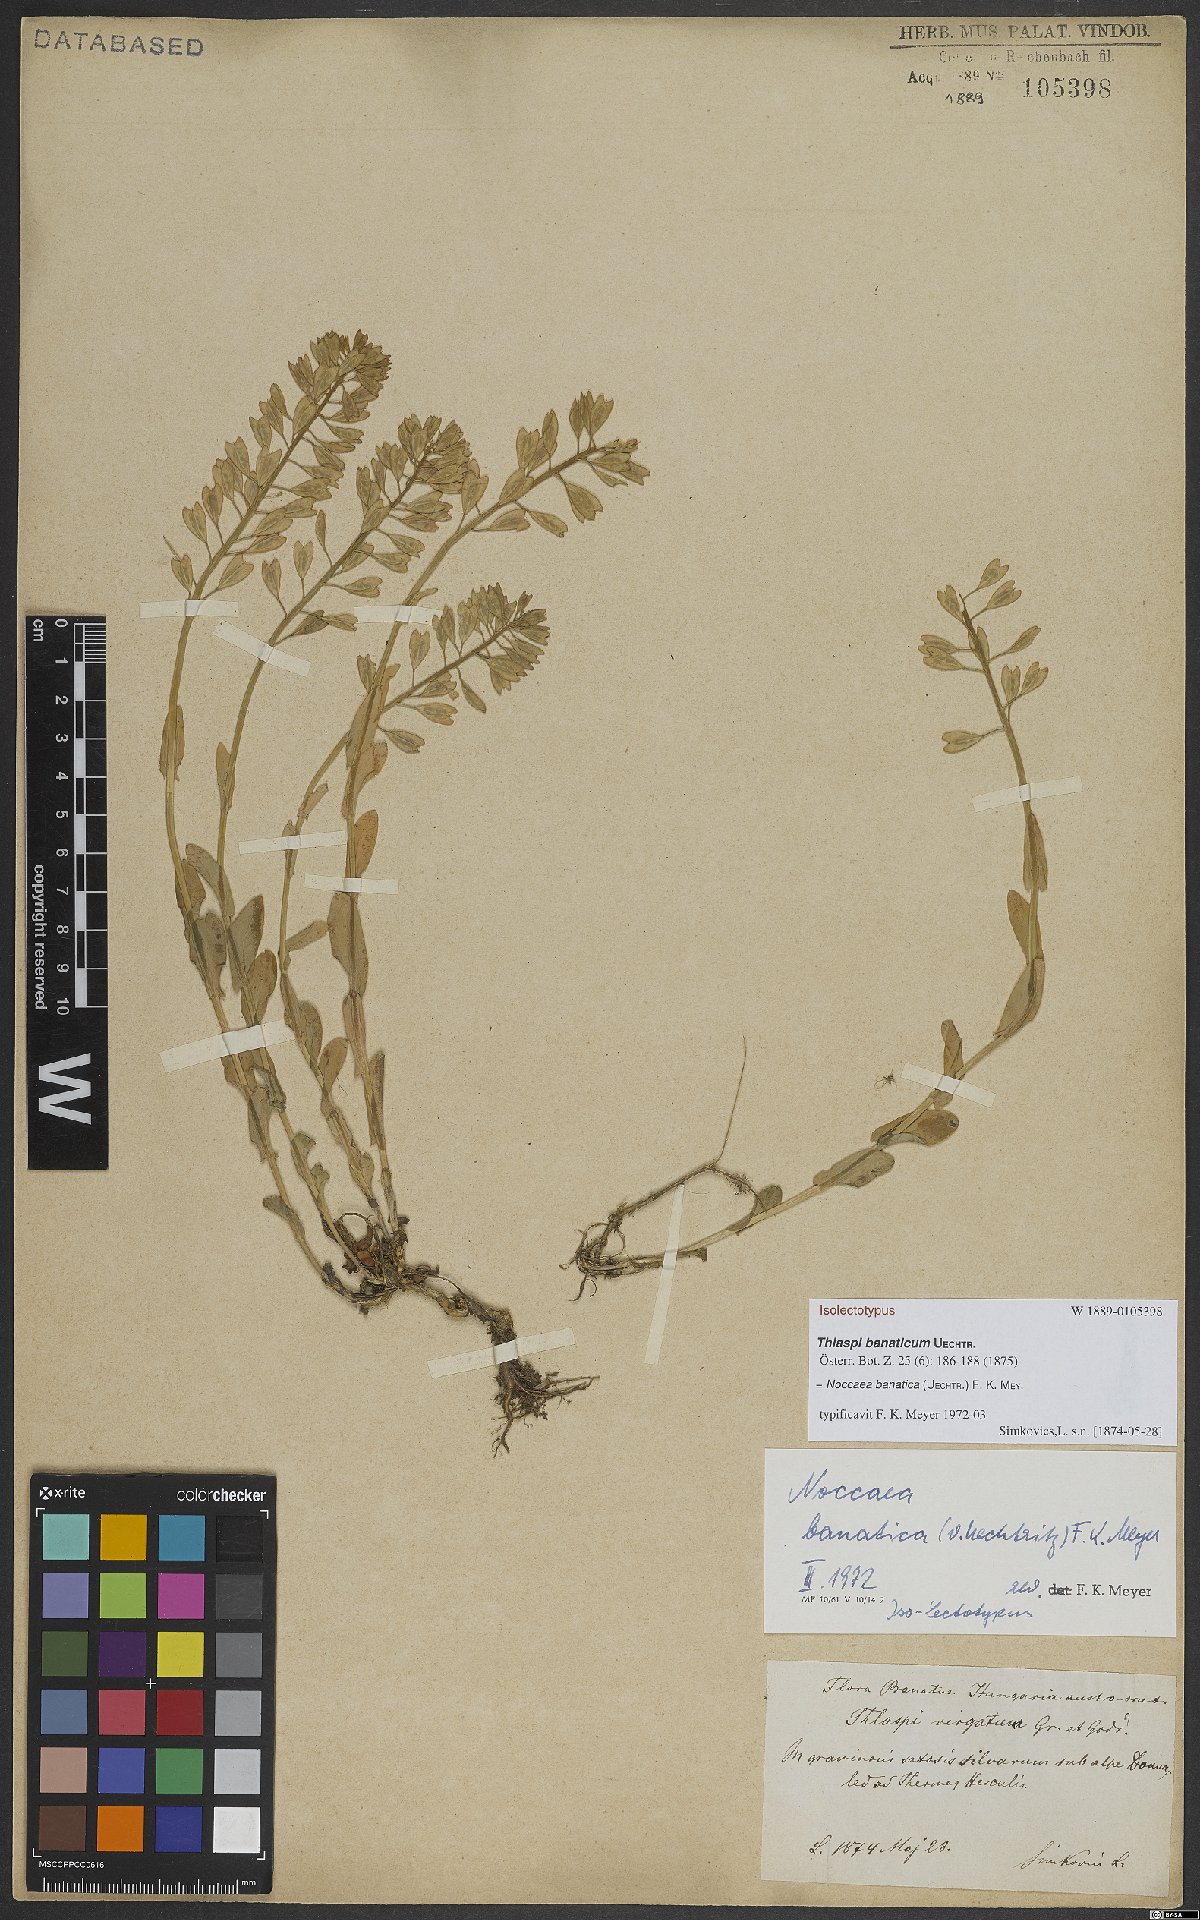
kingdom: Plantae
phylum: Tracheophyta
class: Magnoliopsida
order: Brassicales
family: Brassicaceae
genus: Noccaea
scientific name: Noccaea banatica
